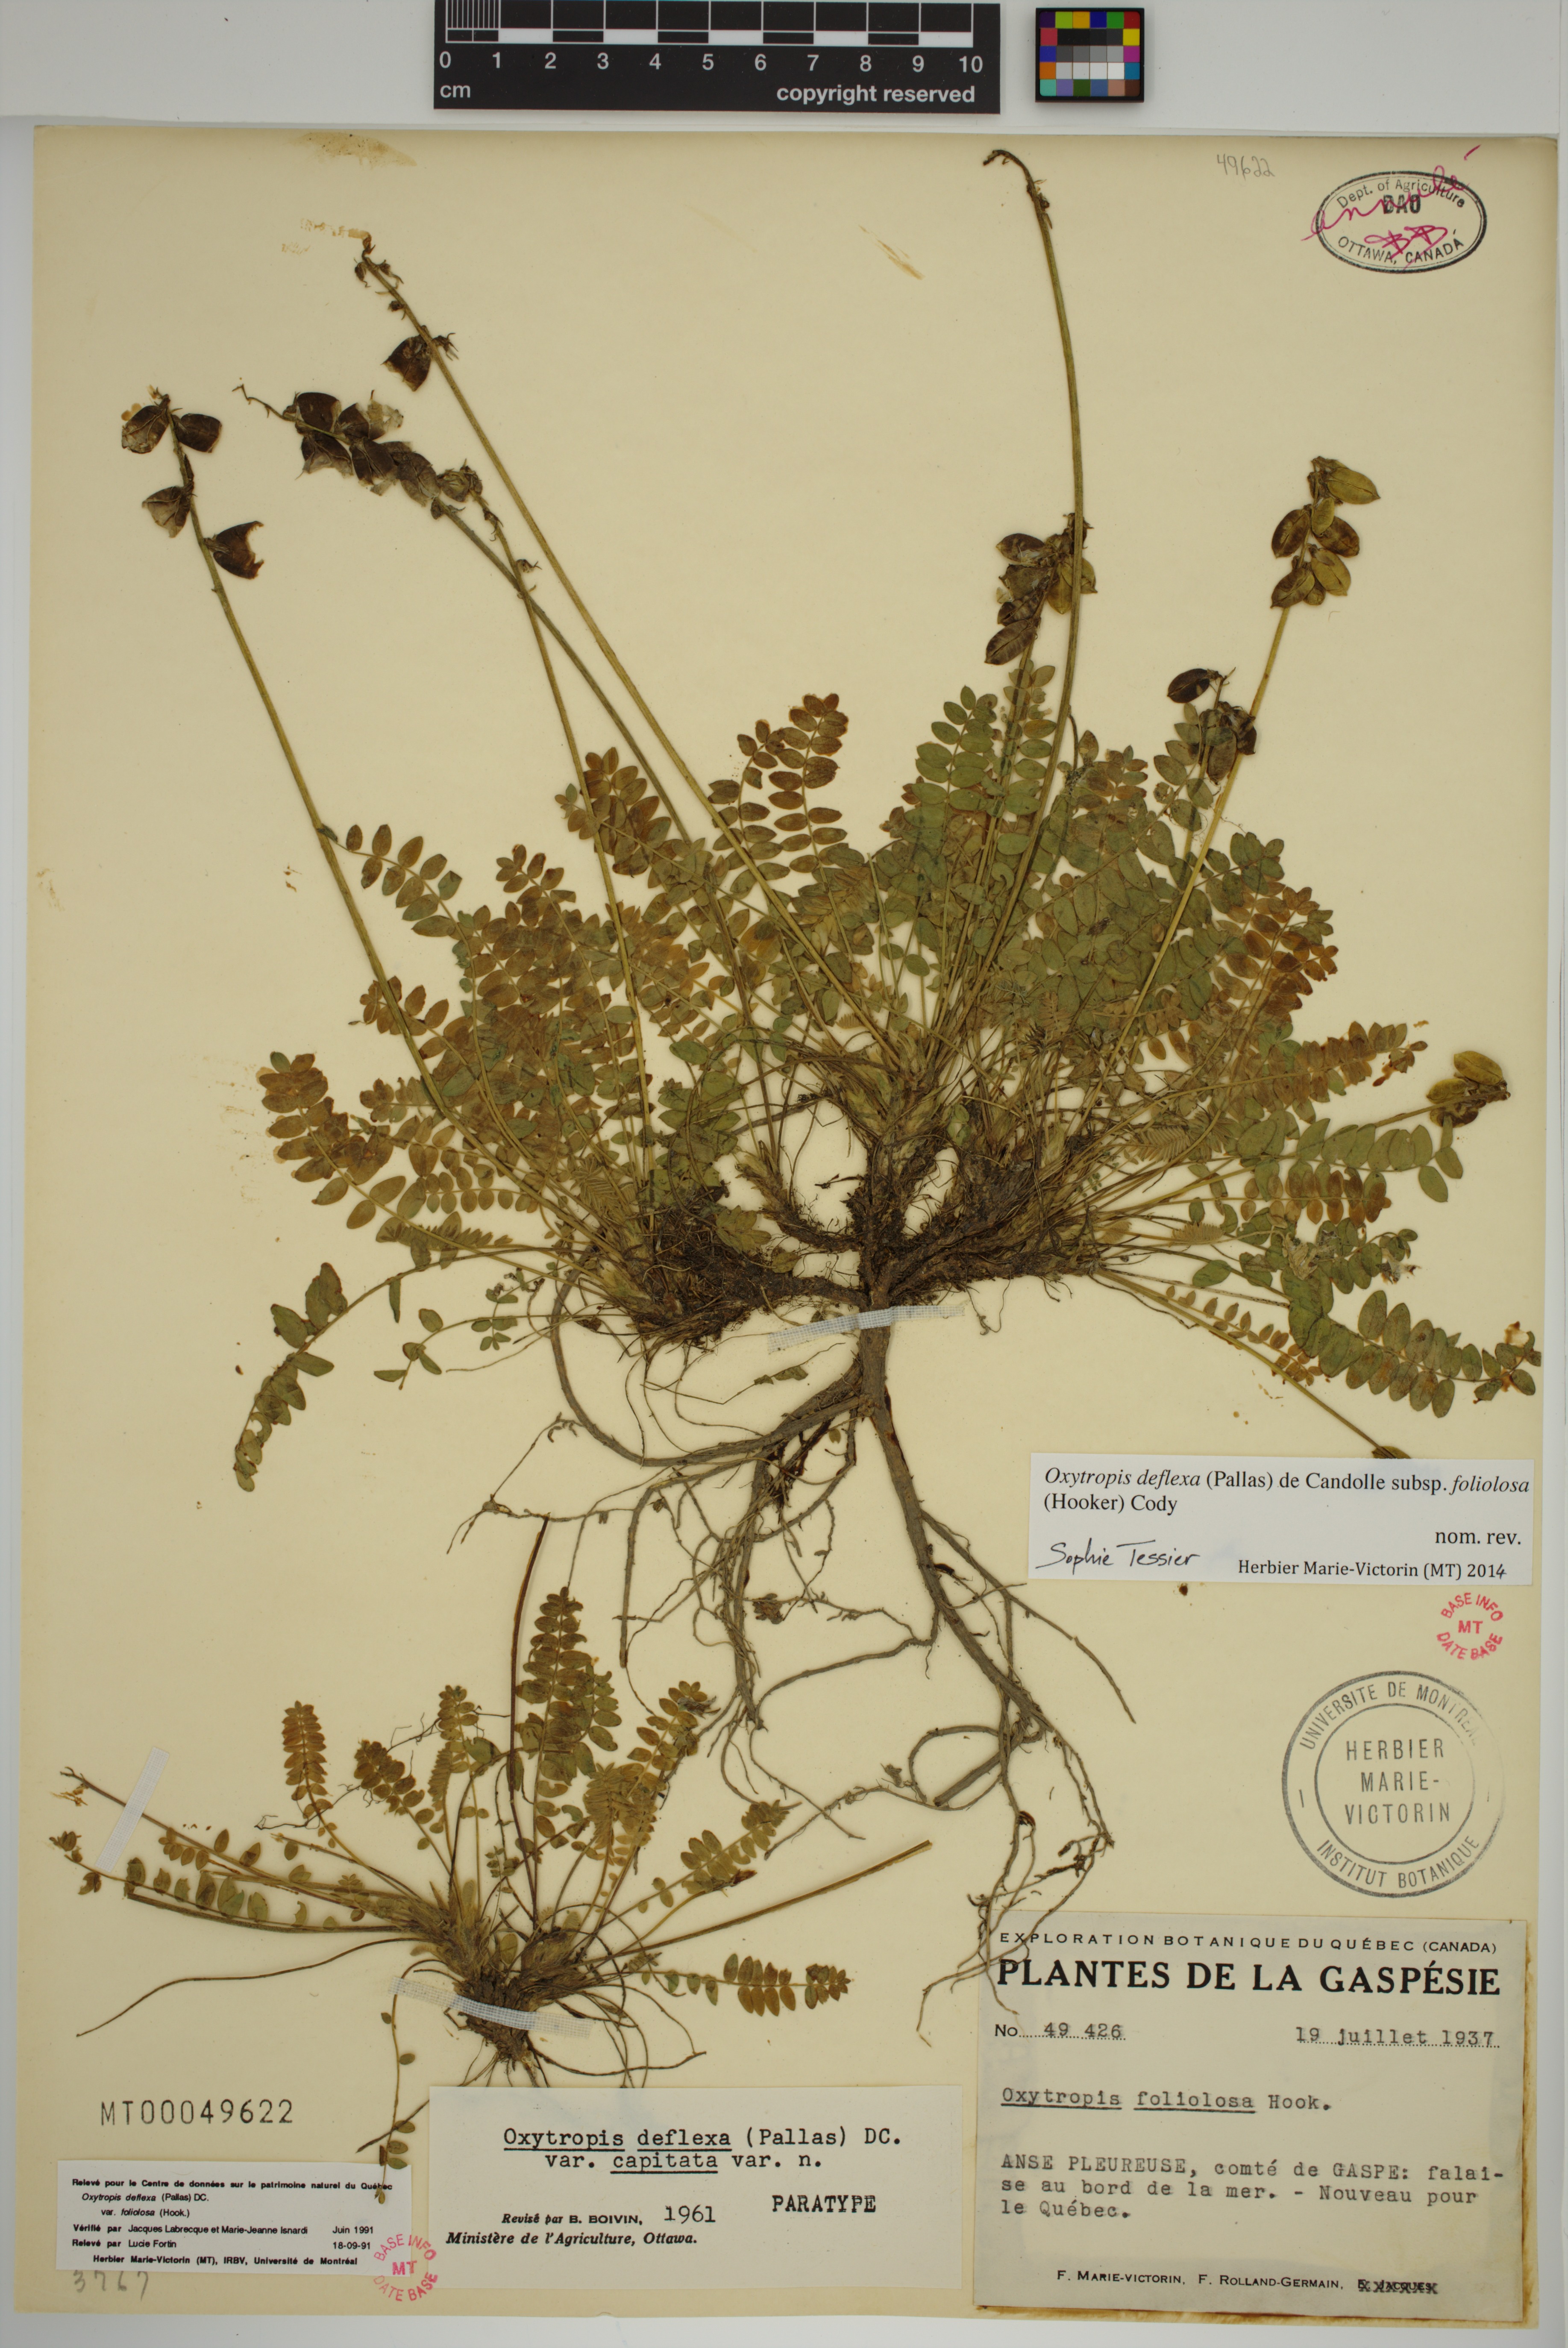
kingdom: Plantae
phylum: Tracheophyta
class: Magnoliopsida
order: Fabales
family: Fabaceae
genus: Oxytropis
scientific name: Oxytropis deflexa
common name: Stemmed oxytrope
